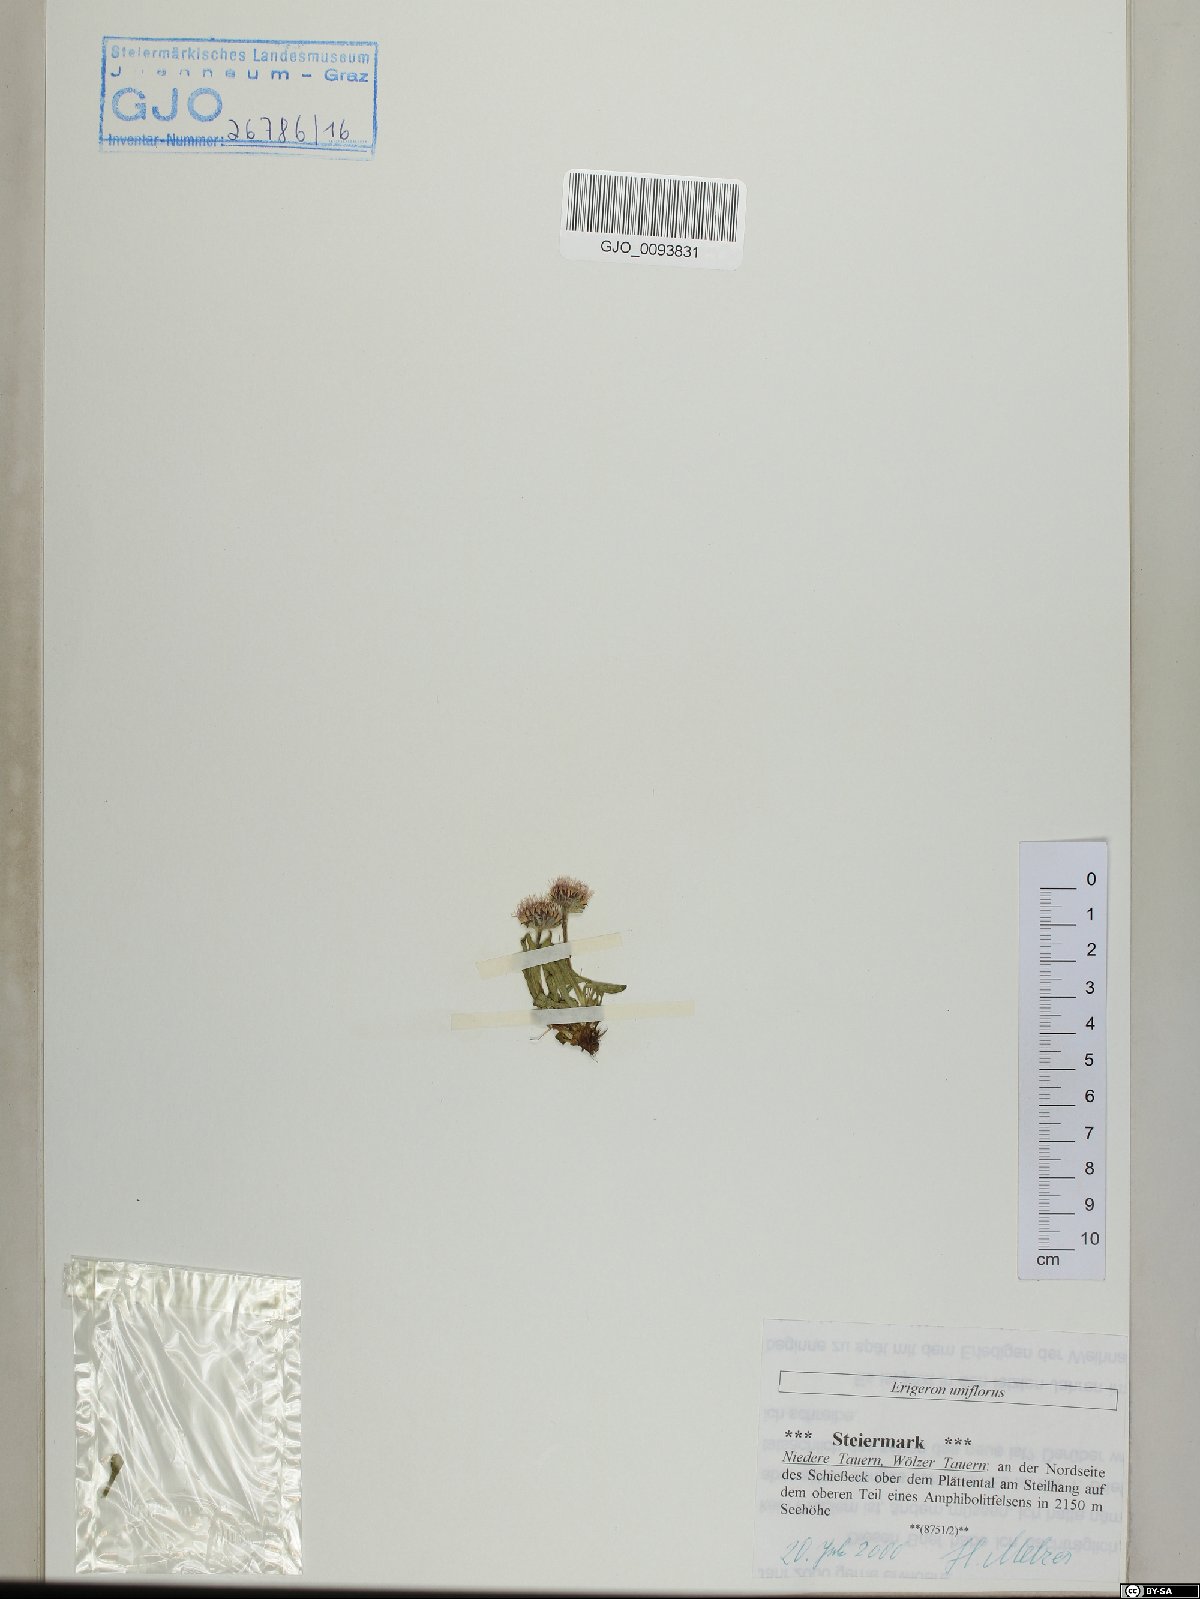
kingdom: Plantae
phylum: Tracheophyta
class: Magnoliopsida
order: Asterales
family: Asteraceae
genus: Erigeron
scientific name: Erigeron uniflorus
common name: Northern daisy
